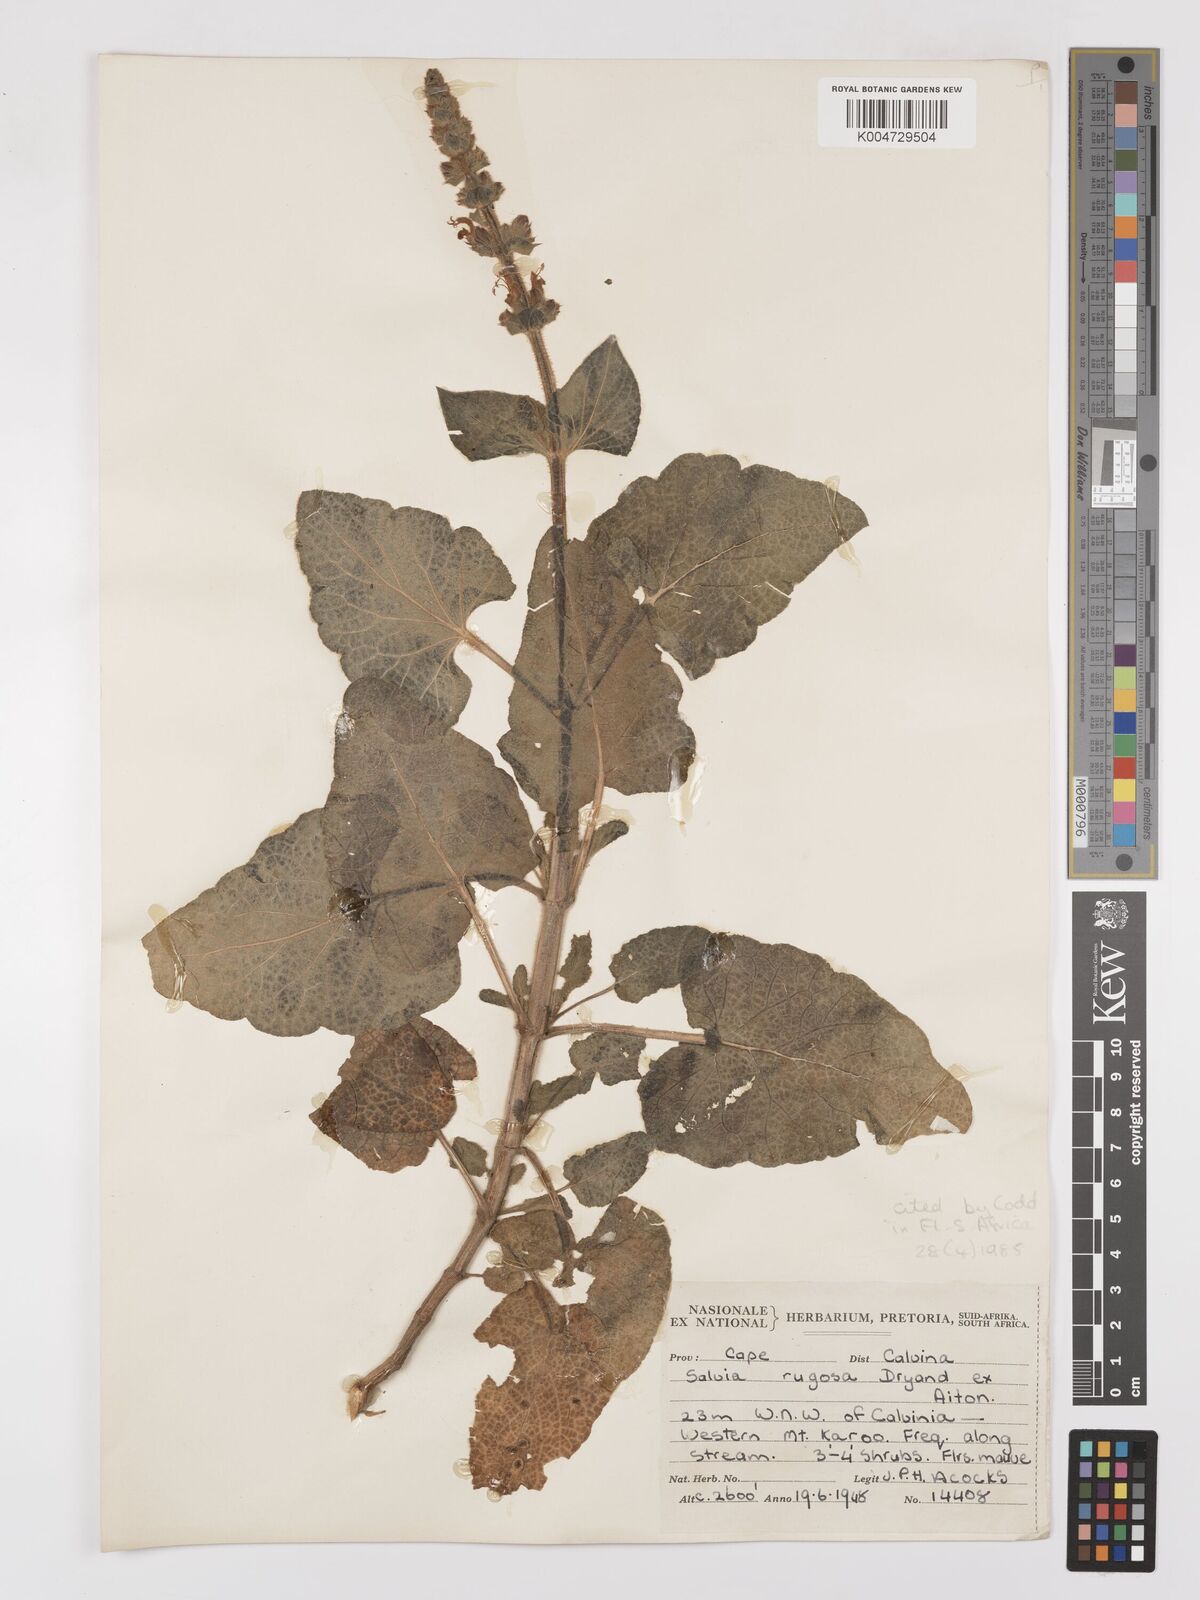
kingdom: Plantae
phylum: Tracheophyta
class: Magnoliopsida
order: Lamiales
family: Lamiaceae
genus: Salvia
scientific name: Salvia
